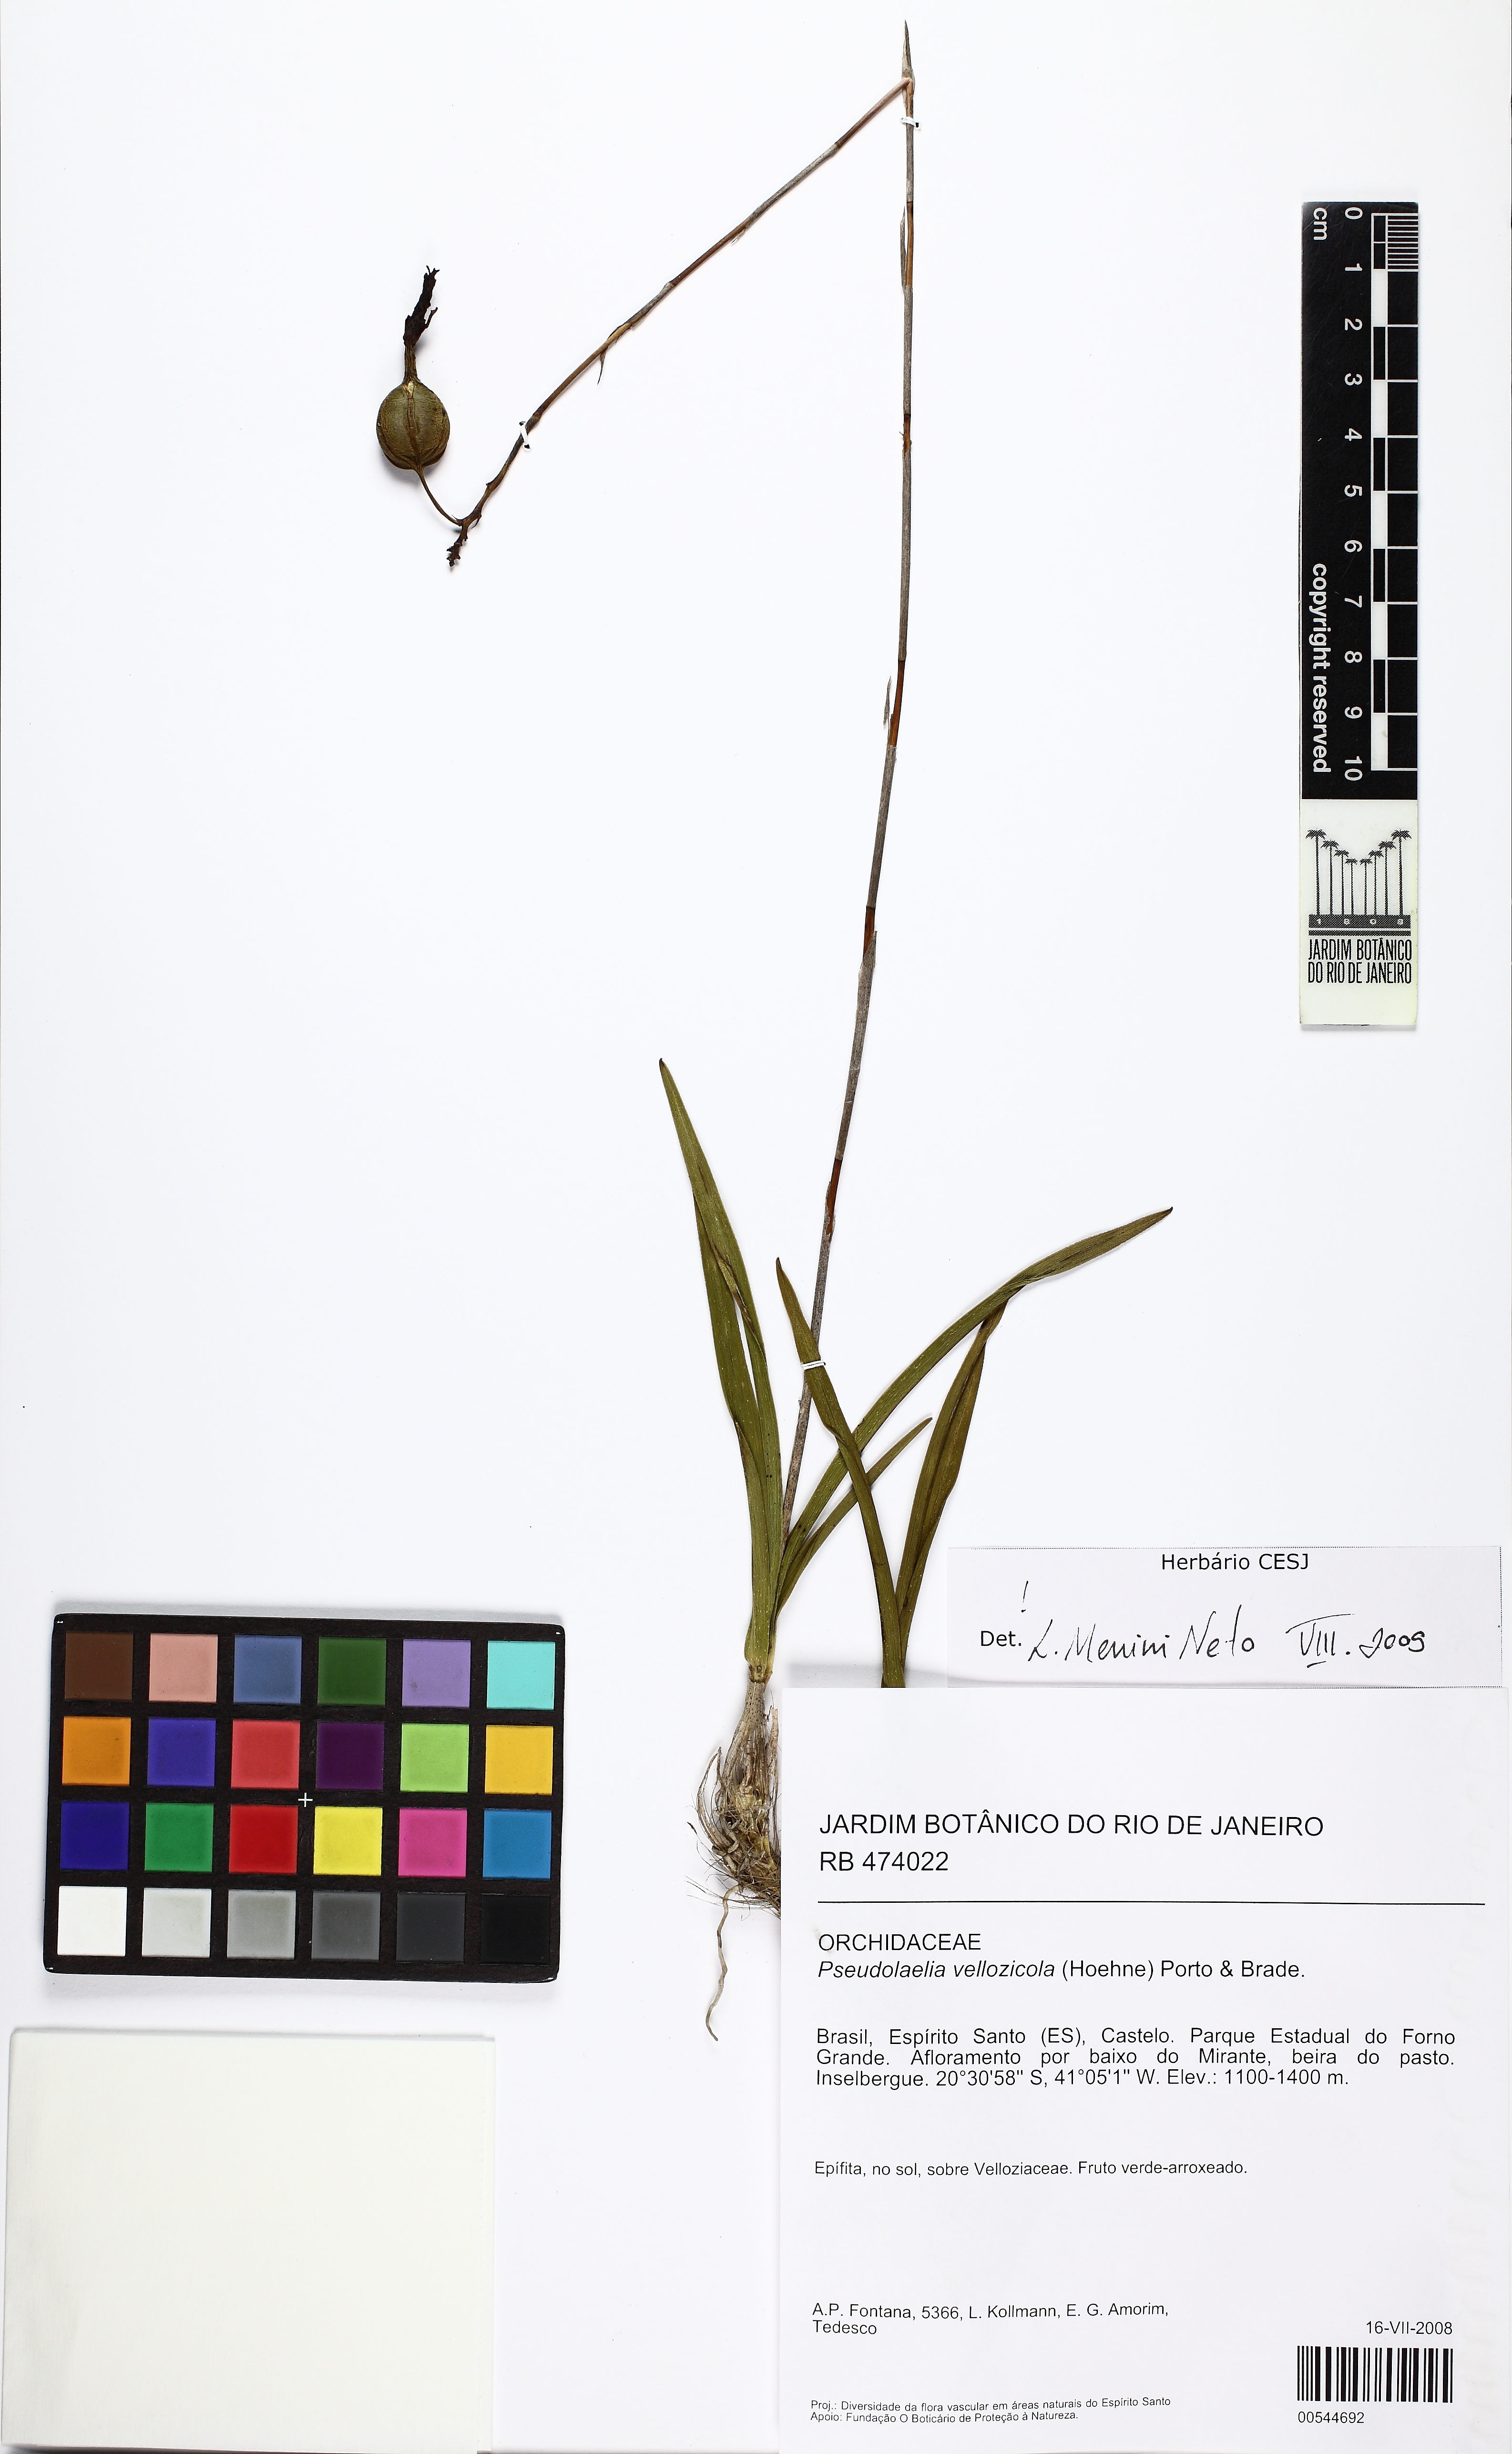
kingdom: Plantae
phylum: Tracheophyta
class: Liliopsida
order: Asparagales
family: Orchidaceae
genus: Pseudolaelia
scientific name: Pseudolaelia vellozicola
